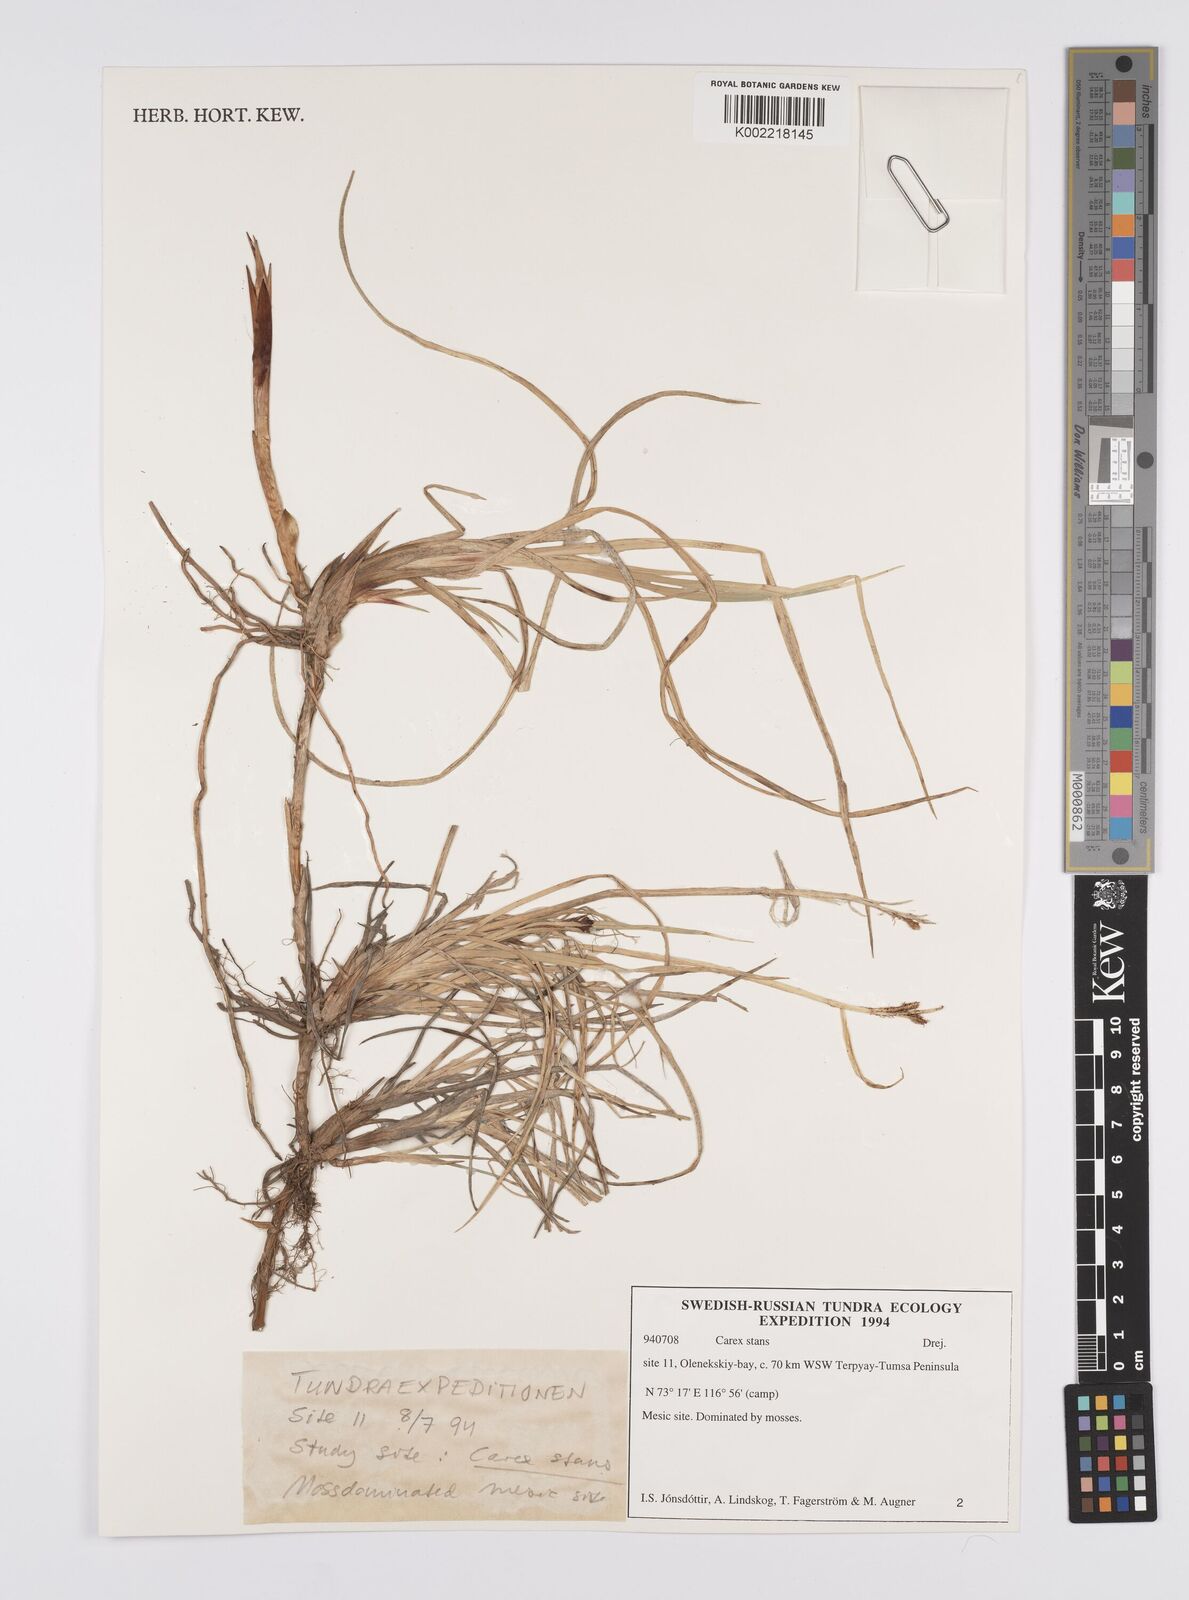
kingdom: Plantae
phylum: Tracheophyta
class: Liliopsida
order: Poales
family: Cyperaceae
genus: Carex
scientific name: Carex aquatilis
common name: Water sedge
